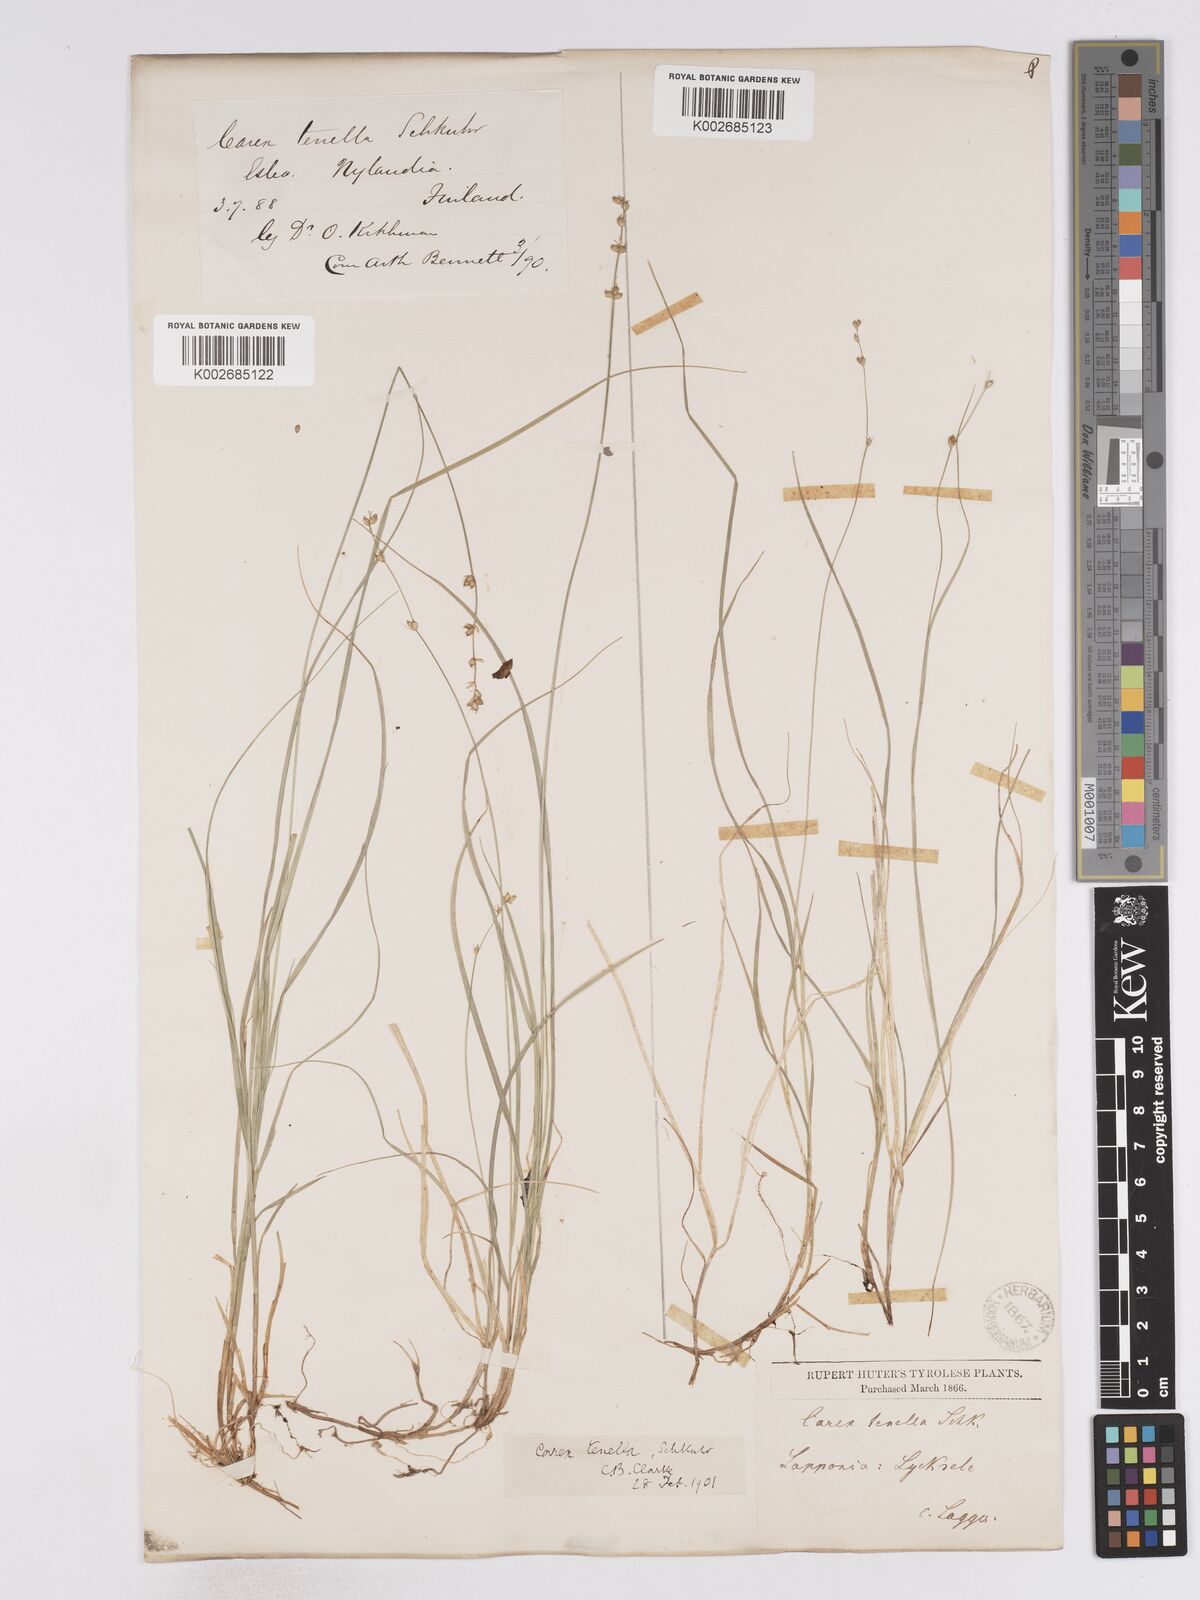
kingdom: Plantae
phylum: Tracheophyta
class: Liliopsida
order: Poales
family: Cyperaceae
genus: Carex
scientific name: Carex disperma
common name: Short-leaved sedge
